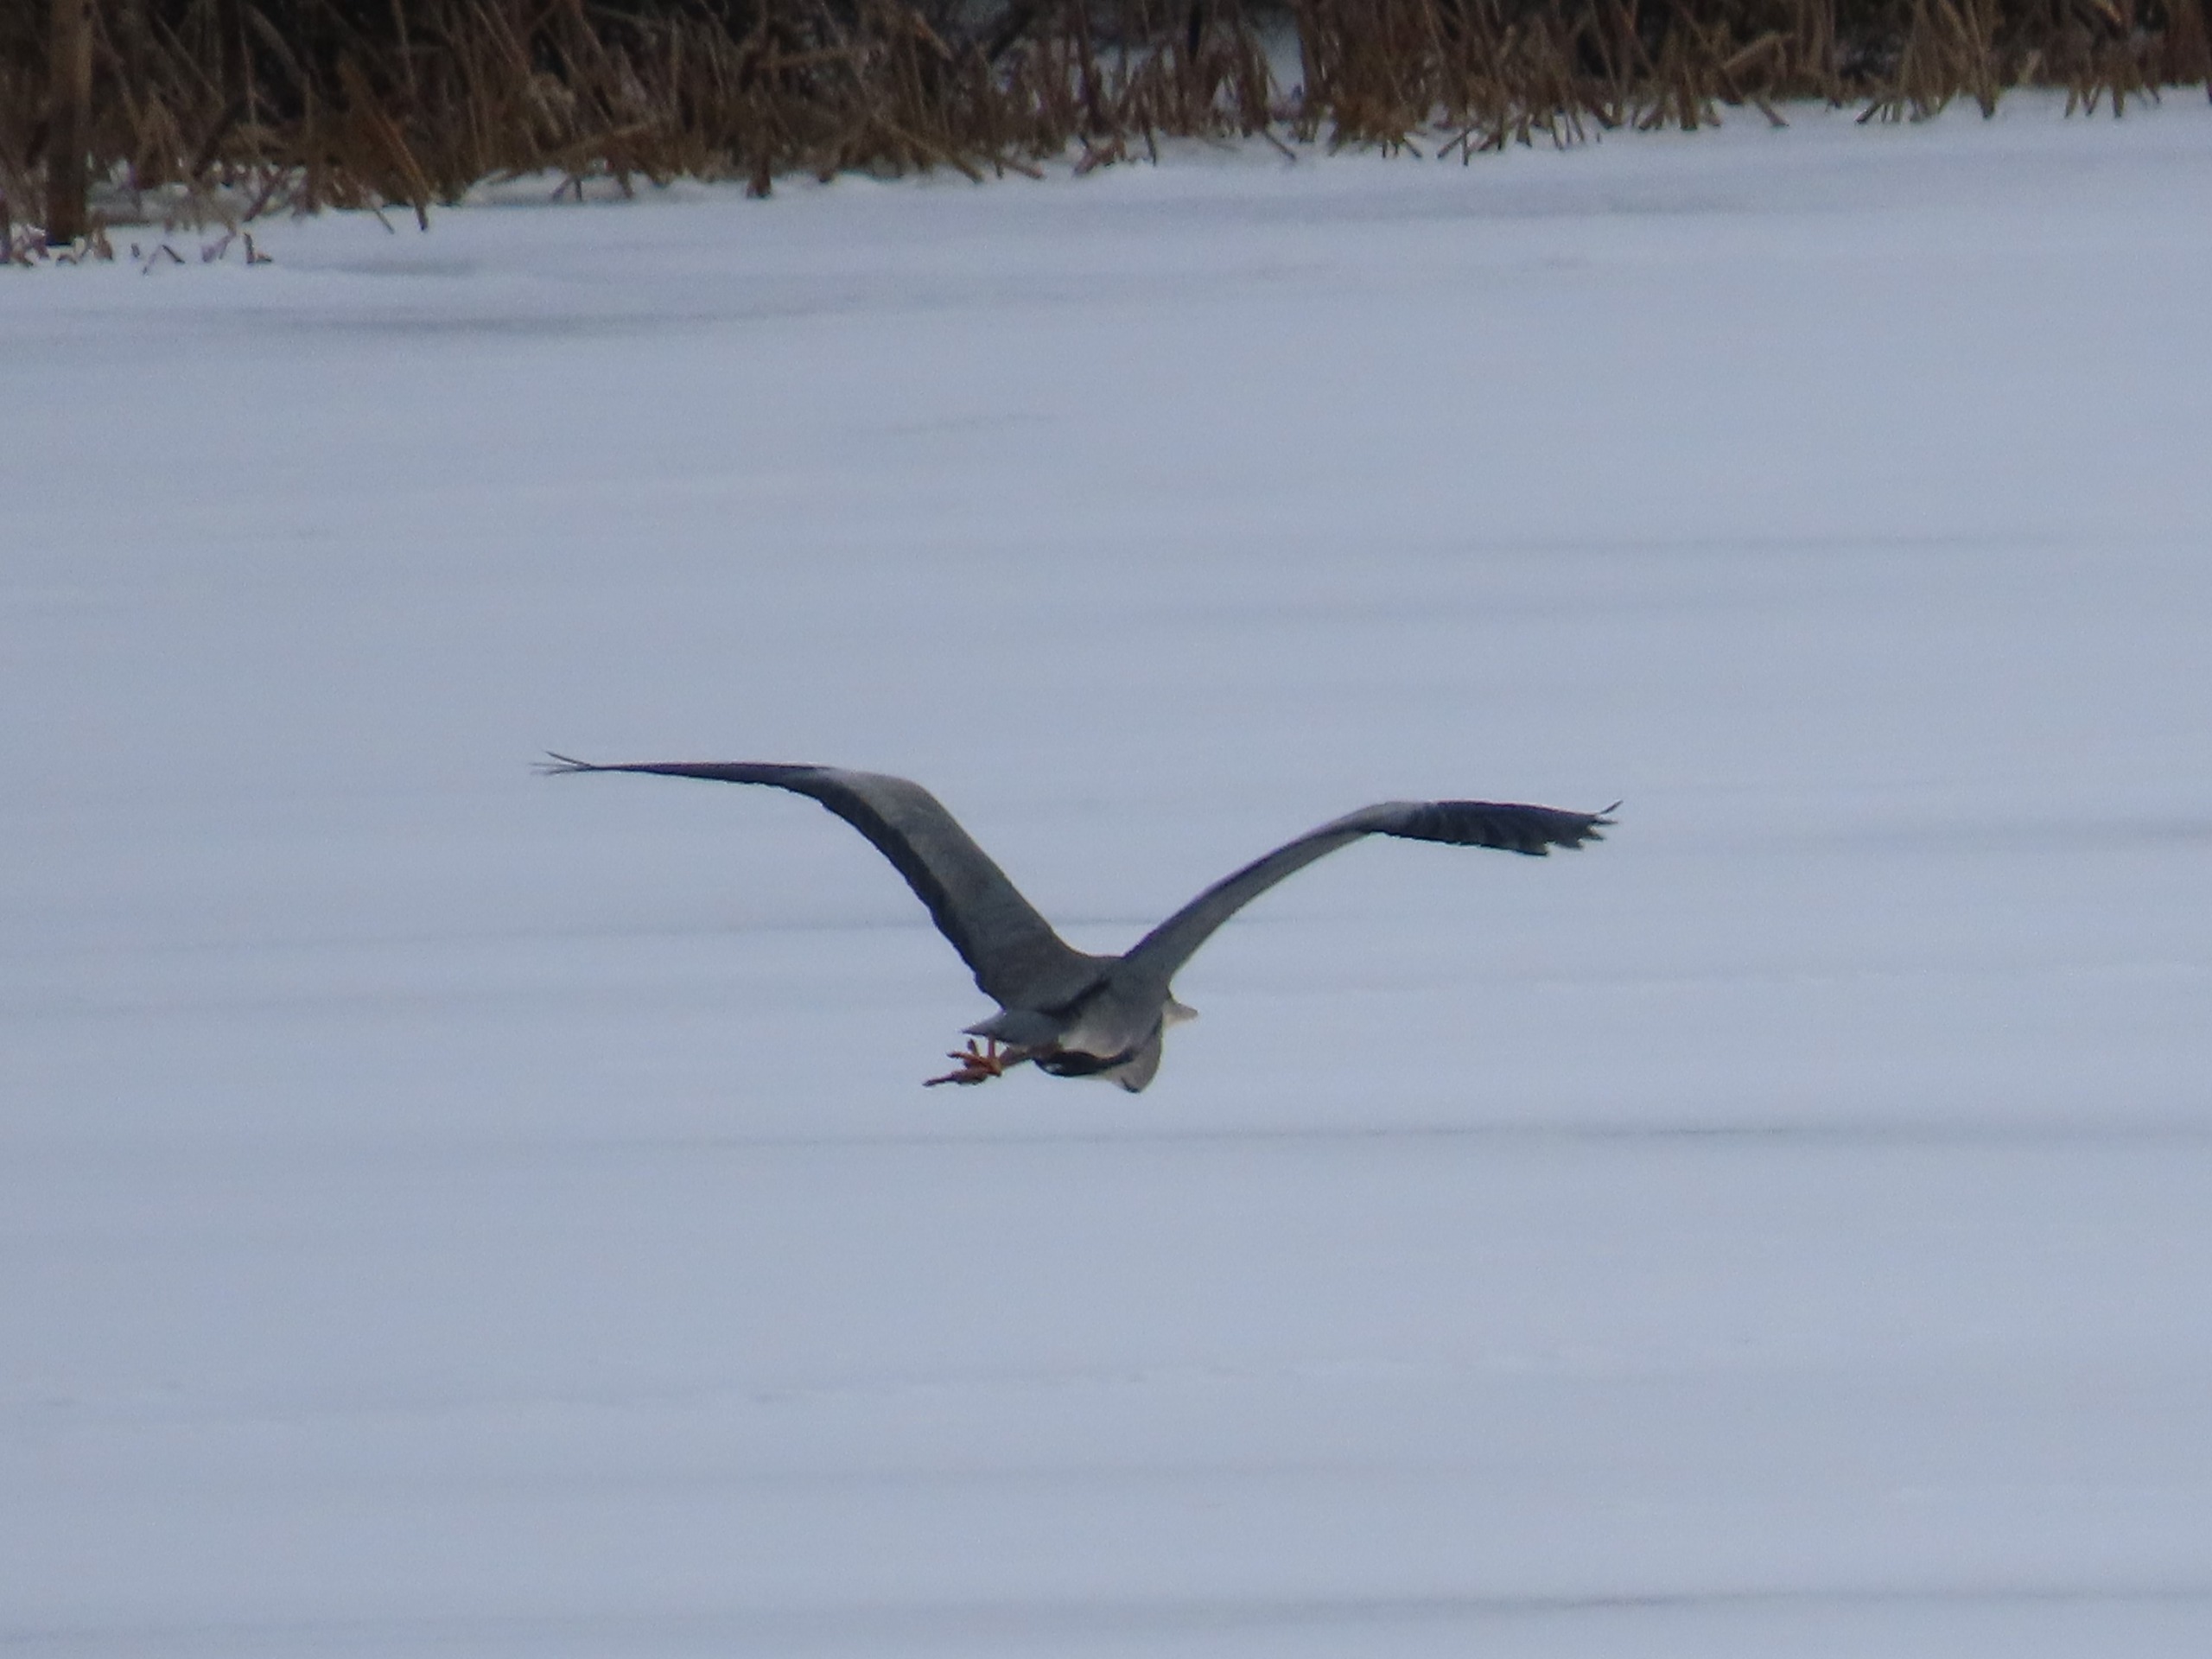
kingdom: Animalia
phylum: Chordata
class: Aves
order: Pelecaniformes
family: Ardeidae
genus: Ardea
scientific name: Ardea cinerea
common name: Fiskehejre
